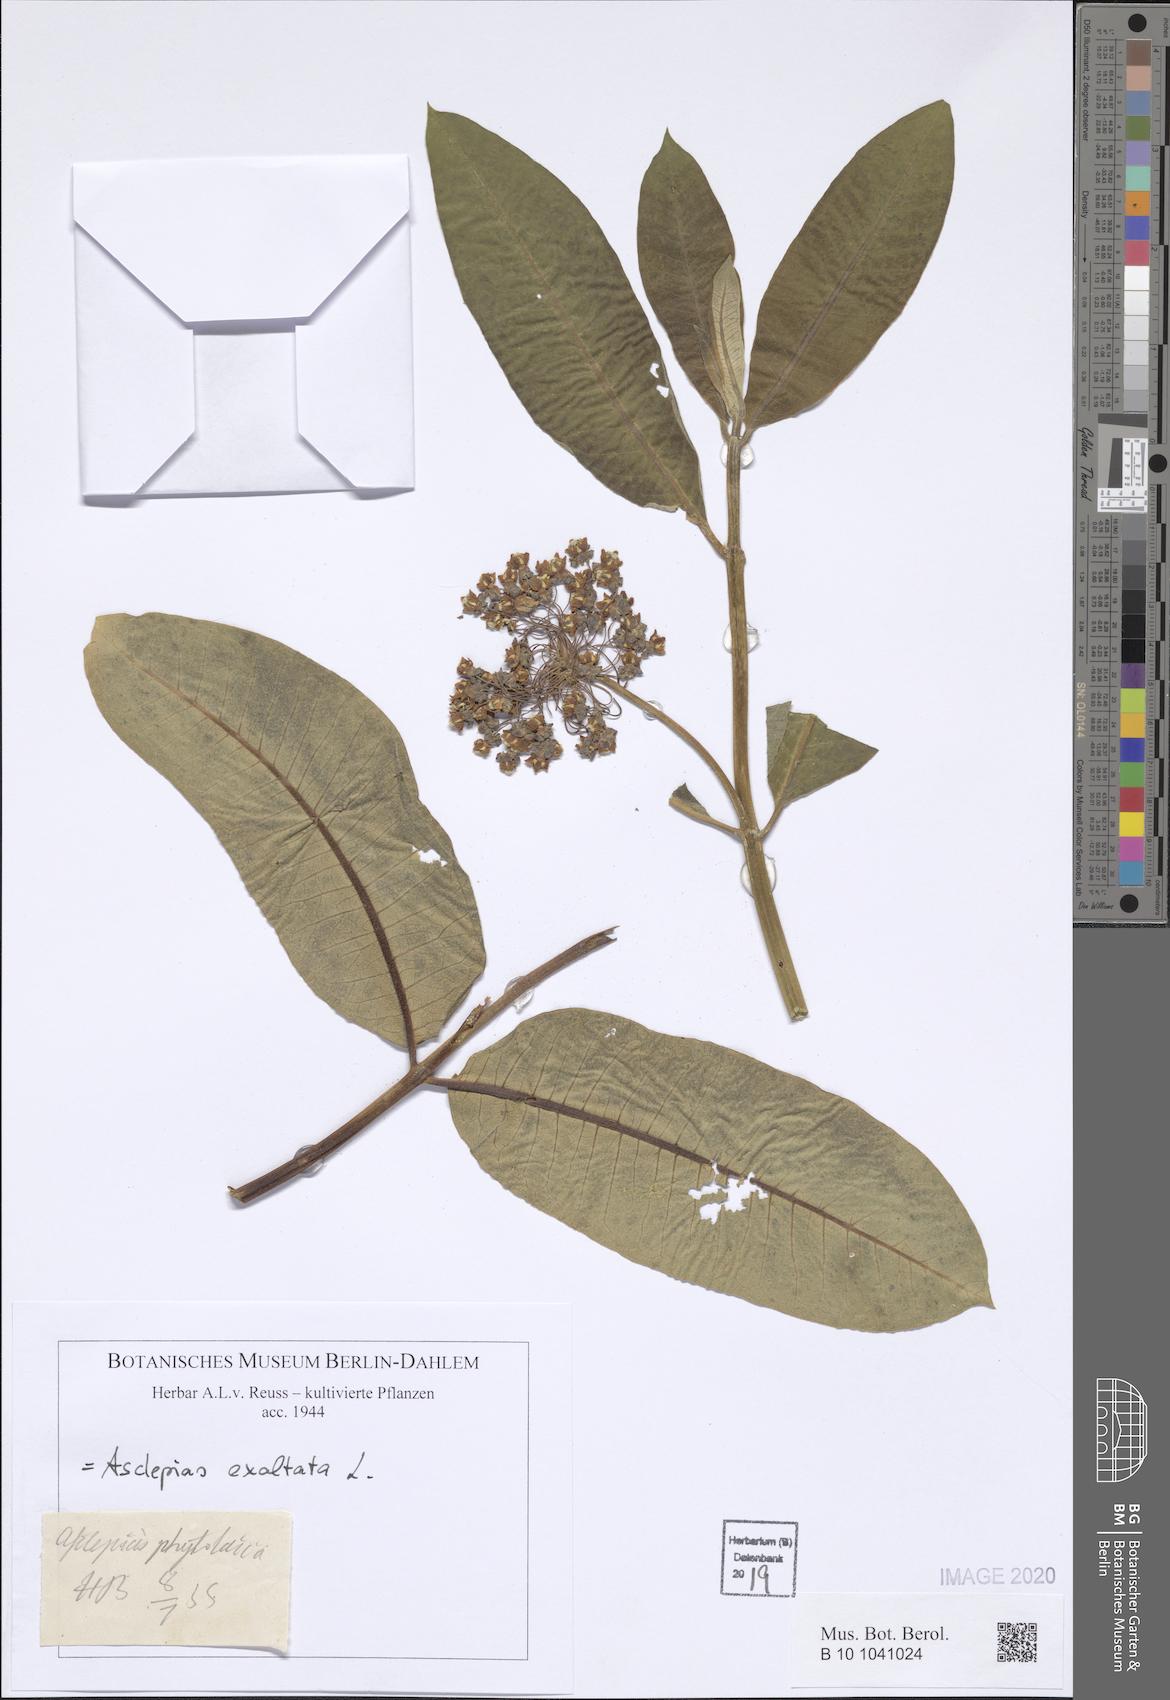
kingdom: Plantae
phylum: Tracheophyta
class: Magnoliopsida
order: Gentianales
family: Apocynaceae
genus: Asclepias
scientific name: Asclepias exaltata
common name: Poke milkweed
